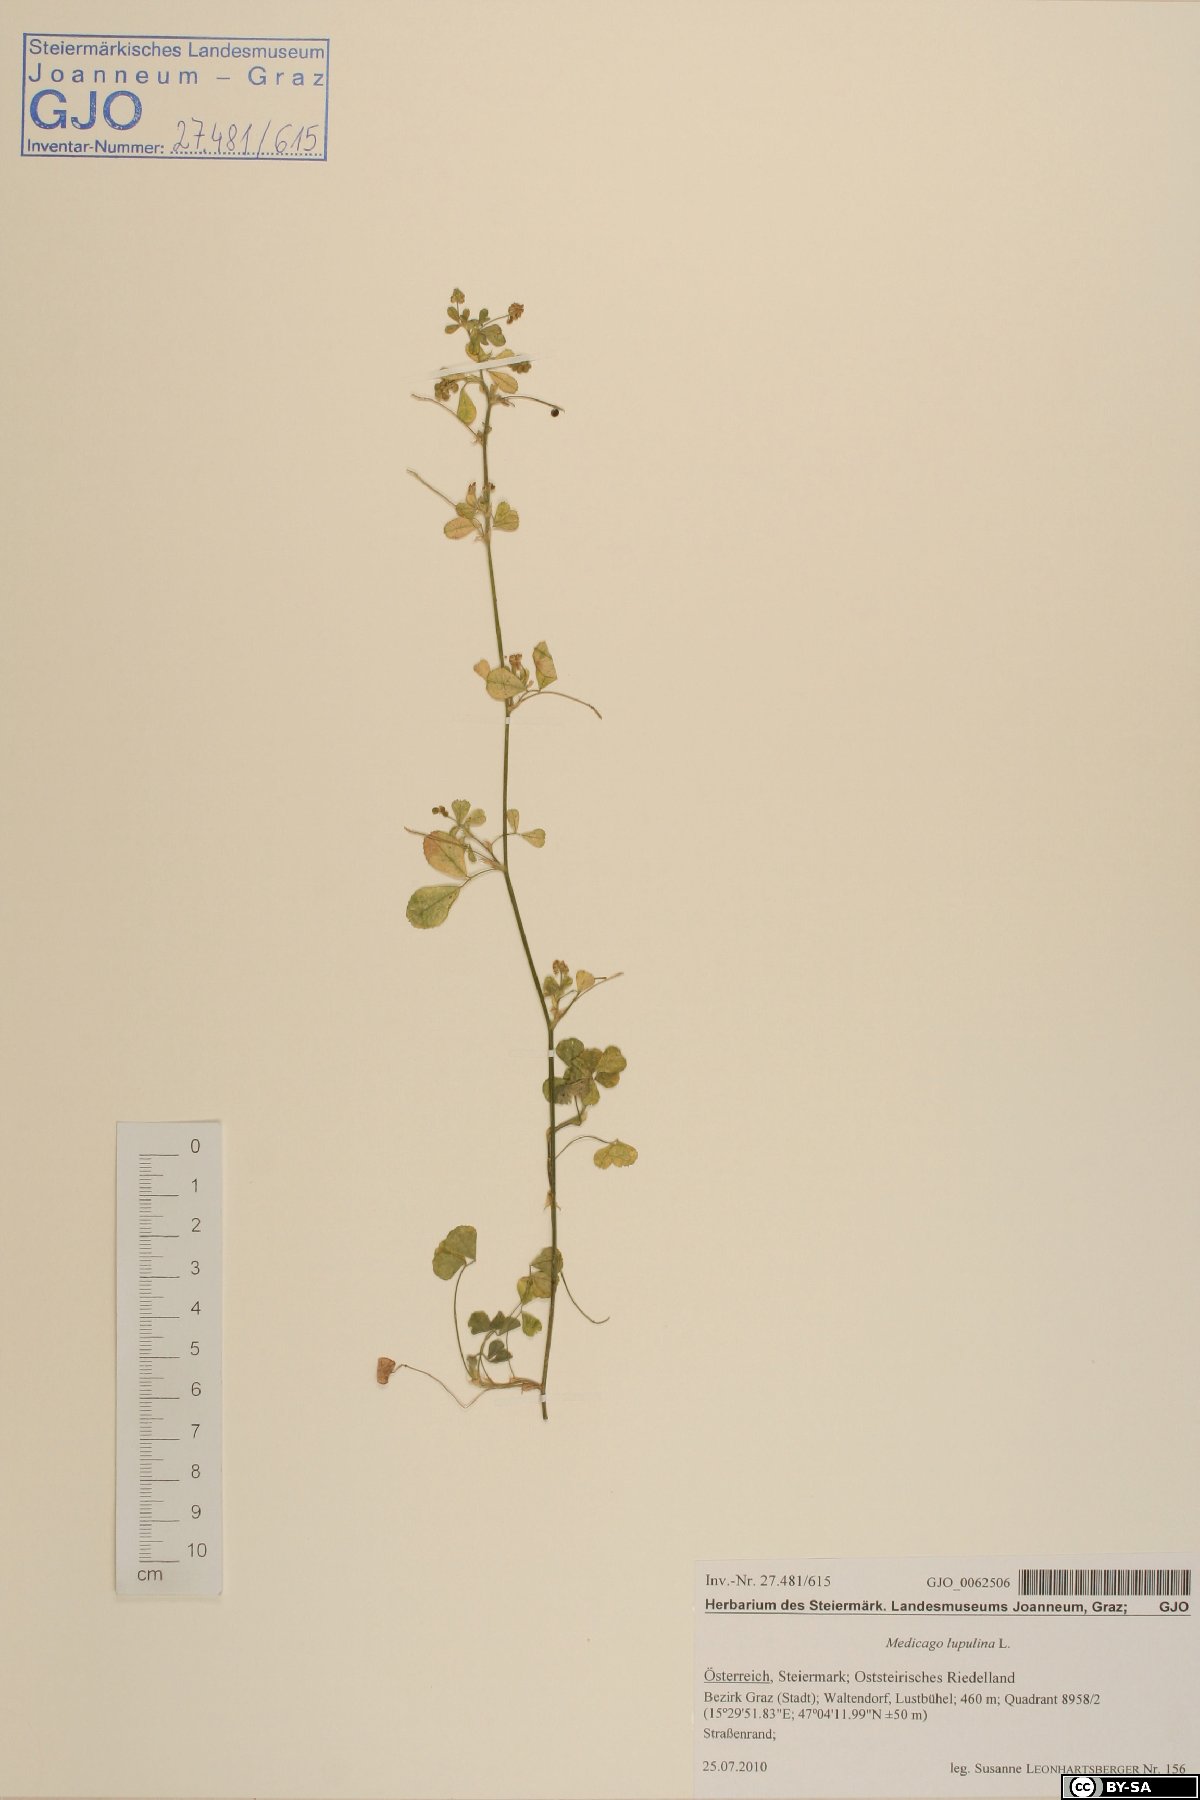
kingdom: Plantae
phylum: Tracheophyta
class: Magnoliopsida
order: Fabales
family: Fabaceae
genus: Medicago
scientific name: Medicago lupulina
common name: Black medick
